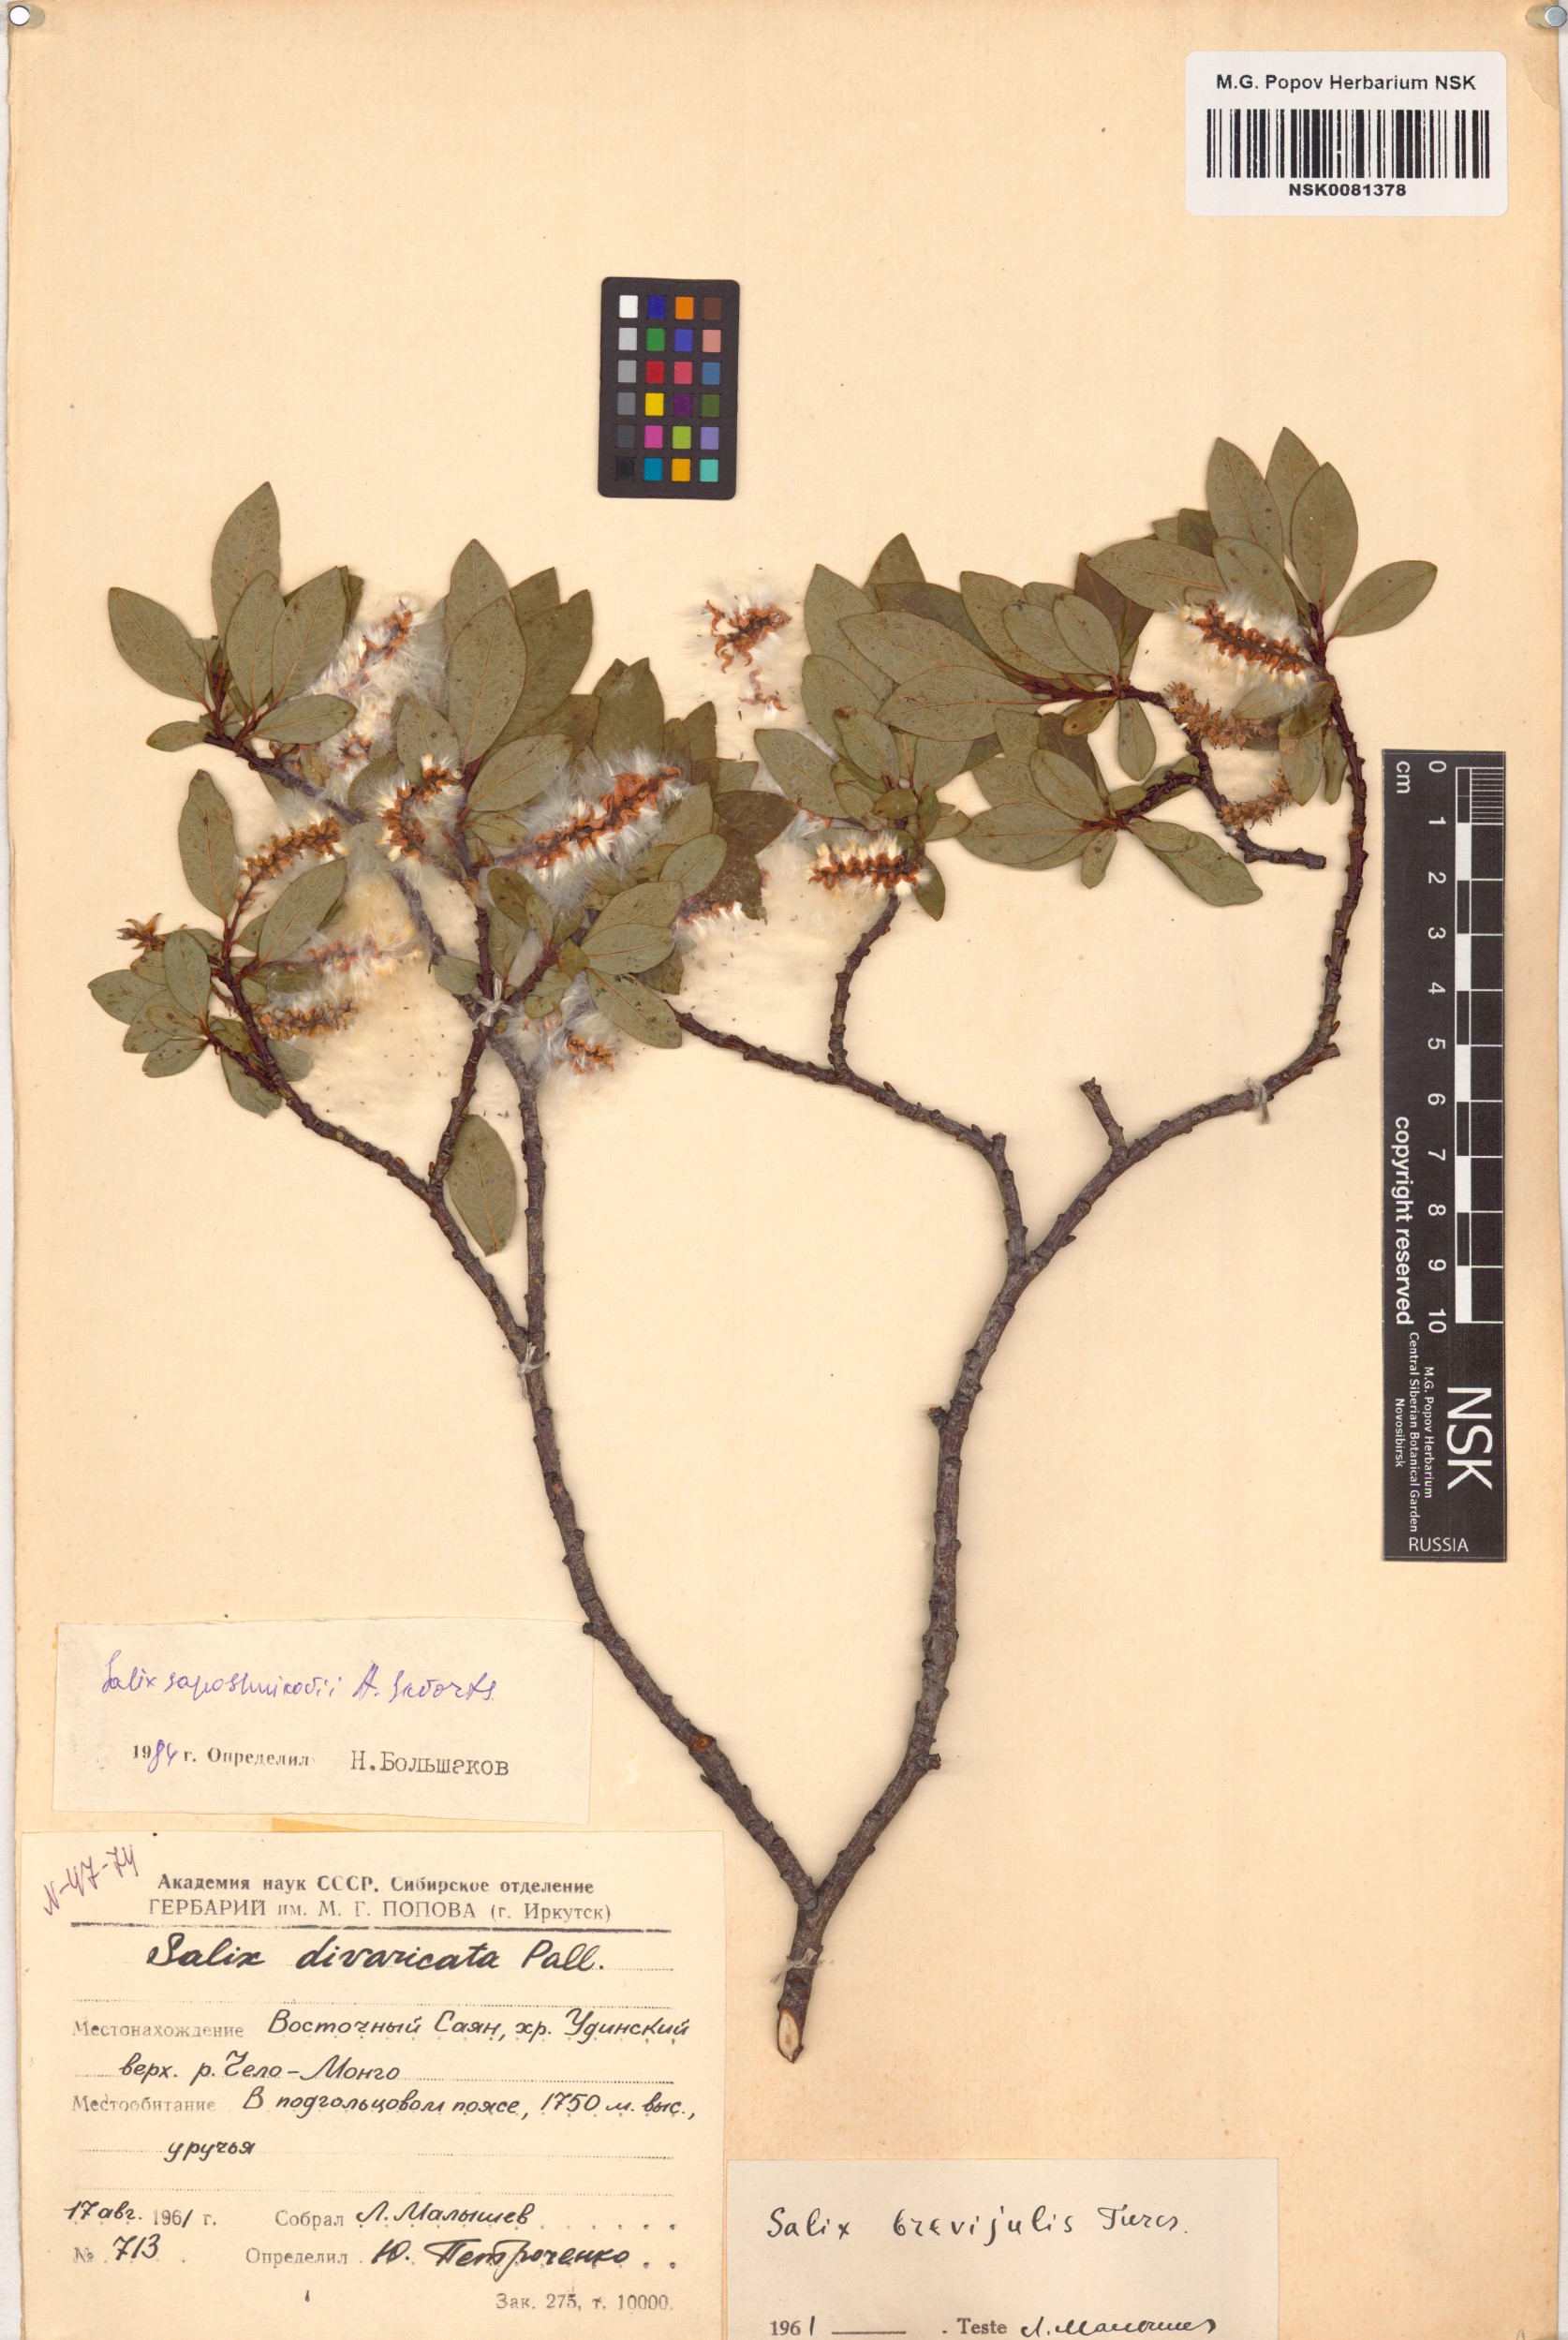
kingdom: Plantae
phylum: Tracheophyta
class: Magnoliopsida
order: Malpighiales
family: Salicaceae
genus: Salix
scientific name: Salix saposhnikovii
